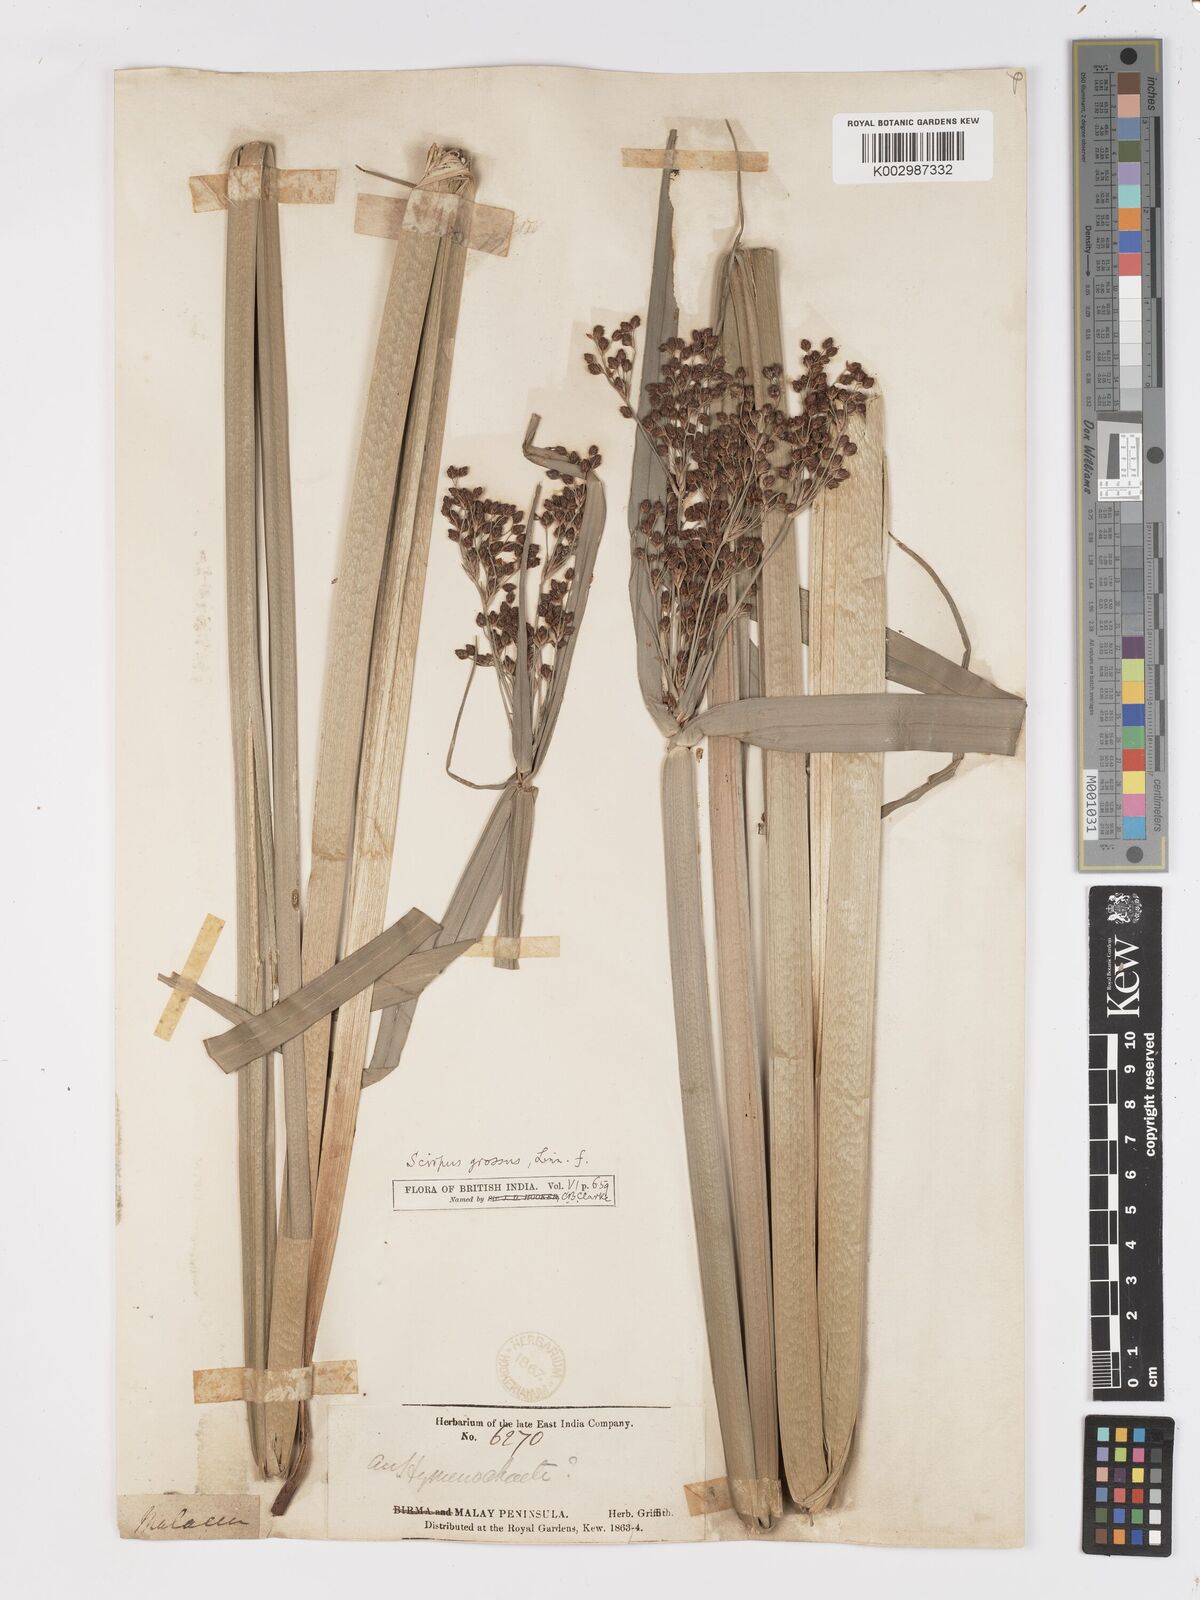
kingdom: Plantae
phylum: Tracheophyta
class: Liliopsida
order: Poales
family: Cyperaceae
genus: Actinoscirpus
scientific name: Actinoscirpus grossus
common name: Giant bur rush
